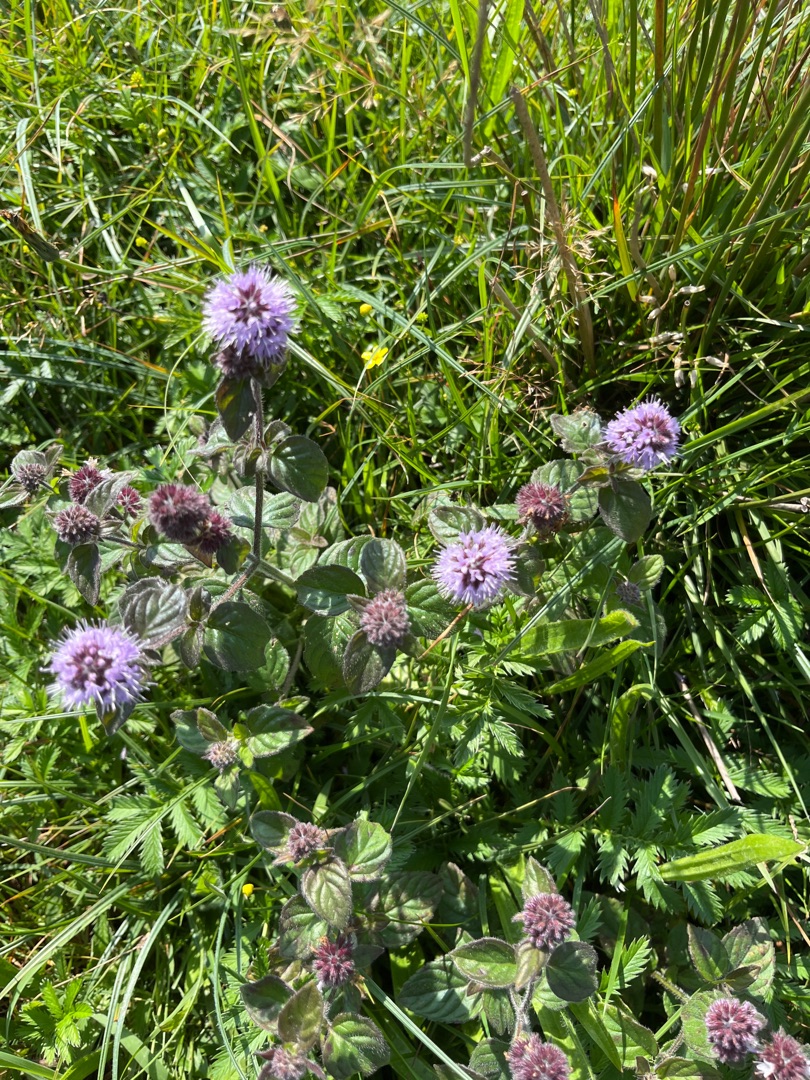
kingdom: Plantae
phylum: Tracheophyta
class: Magnoliopsida
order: Lamiales
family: Lamiaceae
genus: Mentha
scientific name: Mentha aquatica
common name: Vand-mynte
